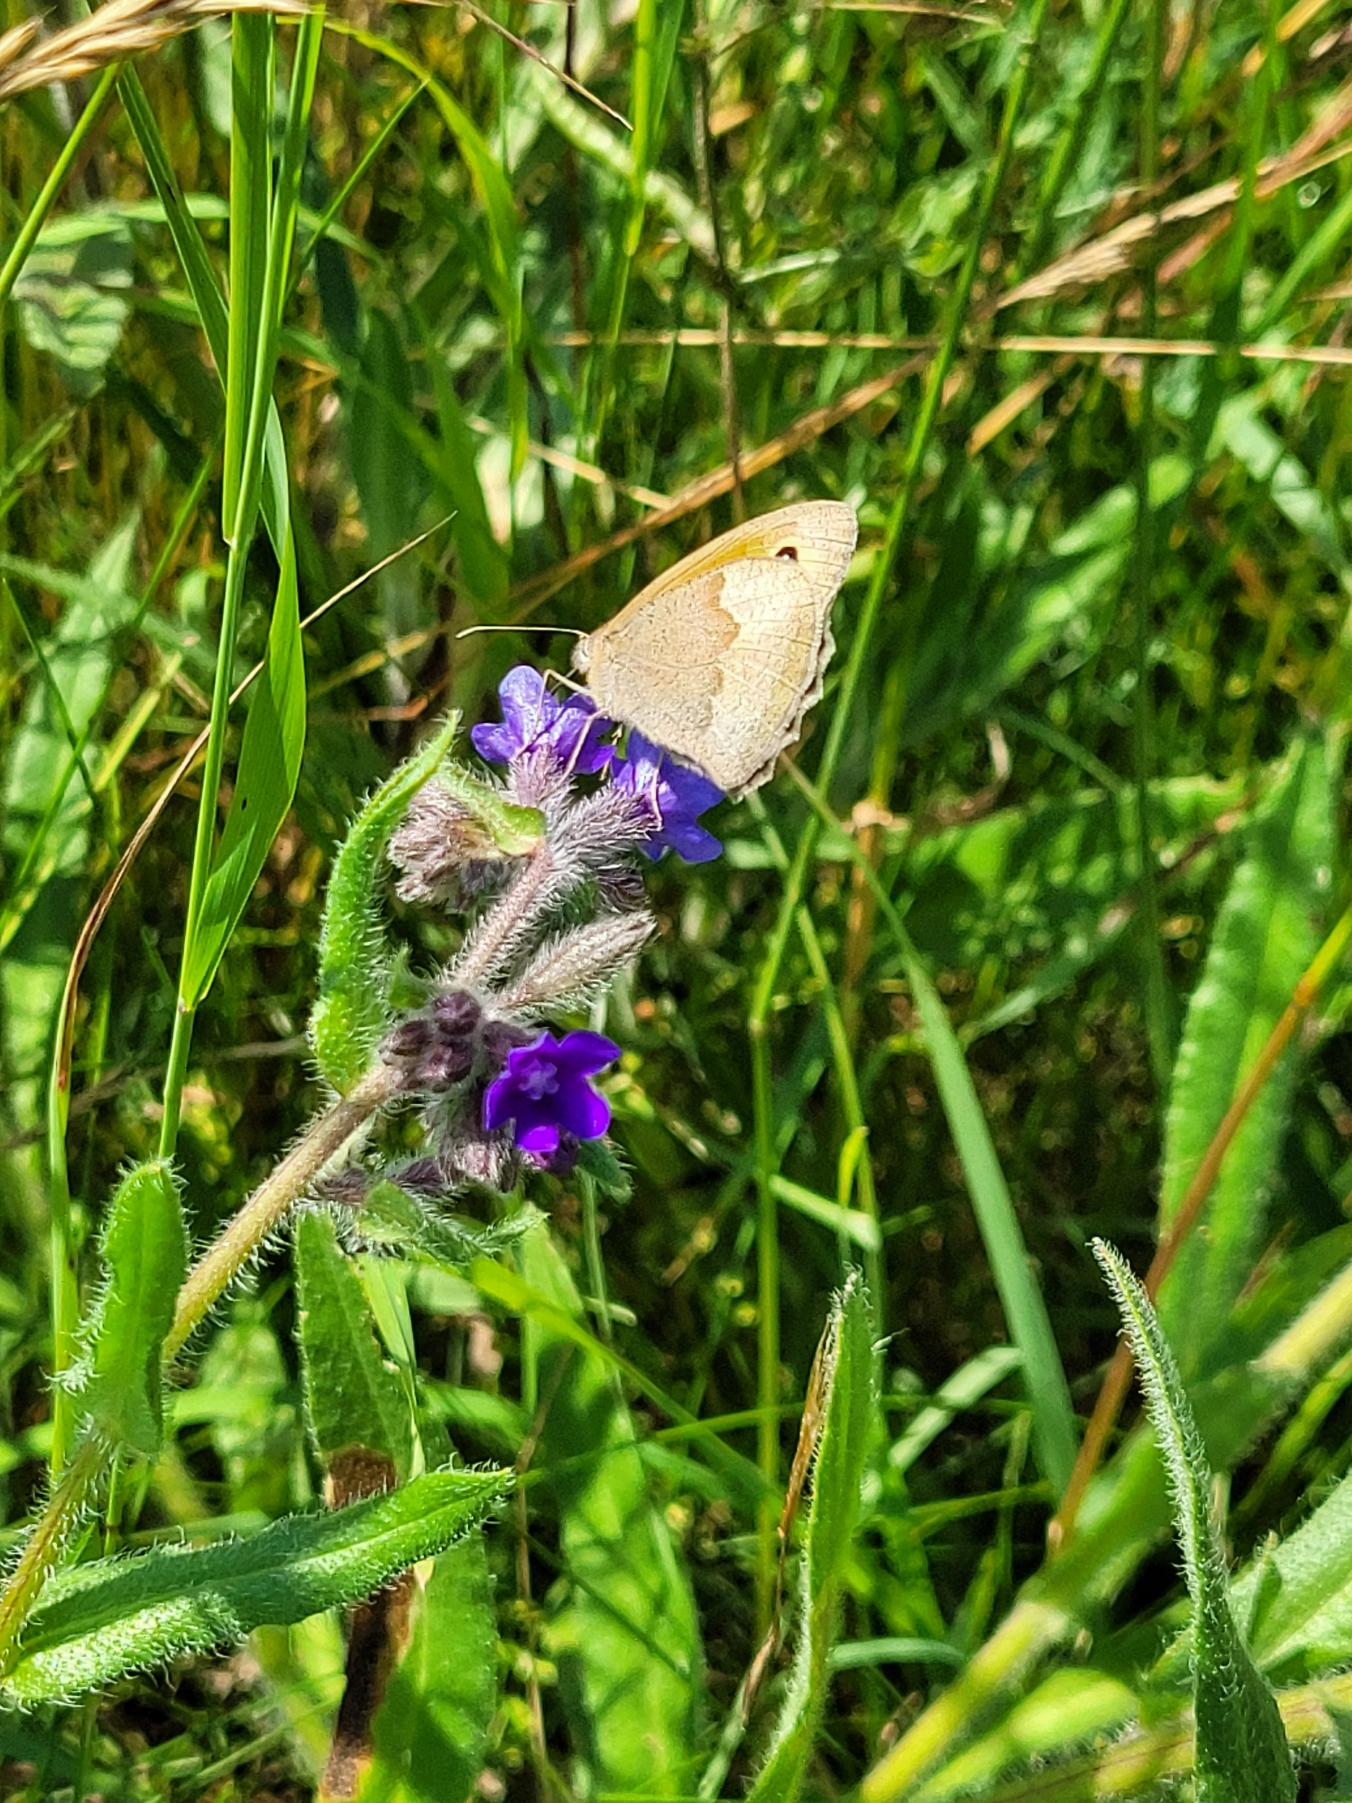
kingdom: Animalia
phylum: Arthropoda
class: Insecta
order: Lepidoptera
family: Nymphalidae
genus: Maniola
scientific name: Maniola jurtina
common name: Græsrandøje
